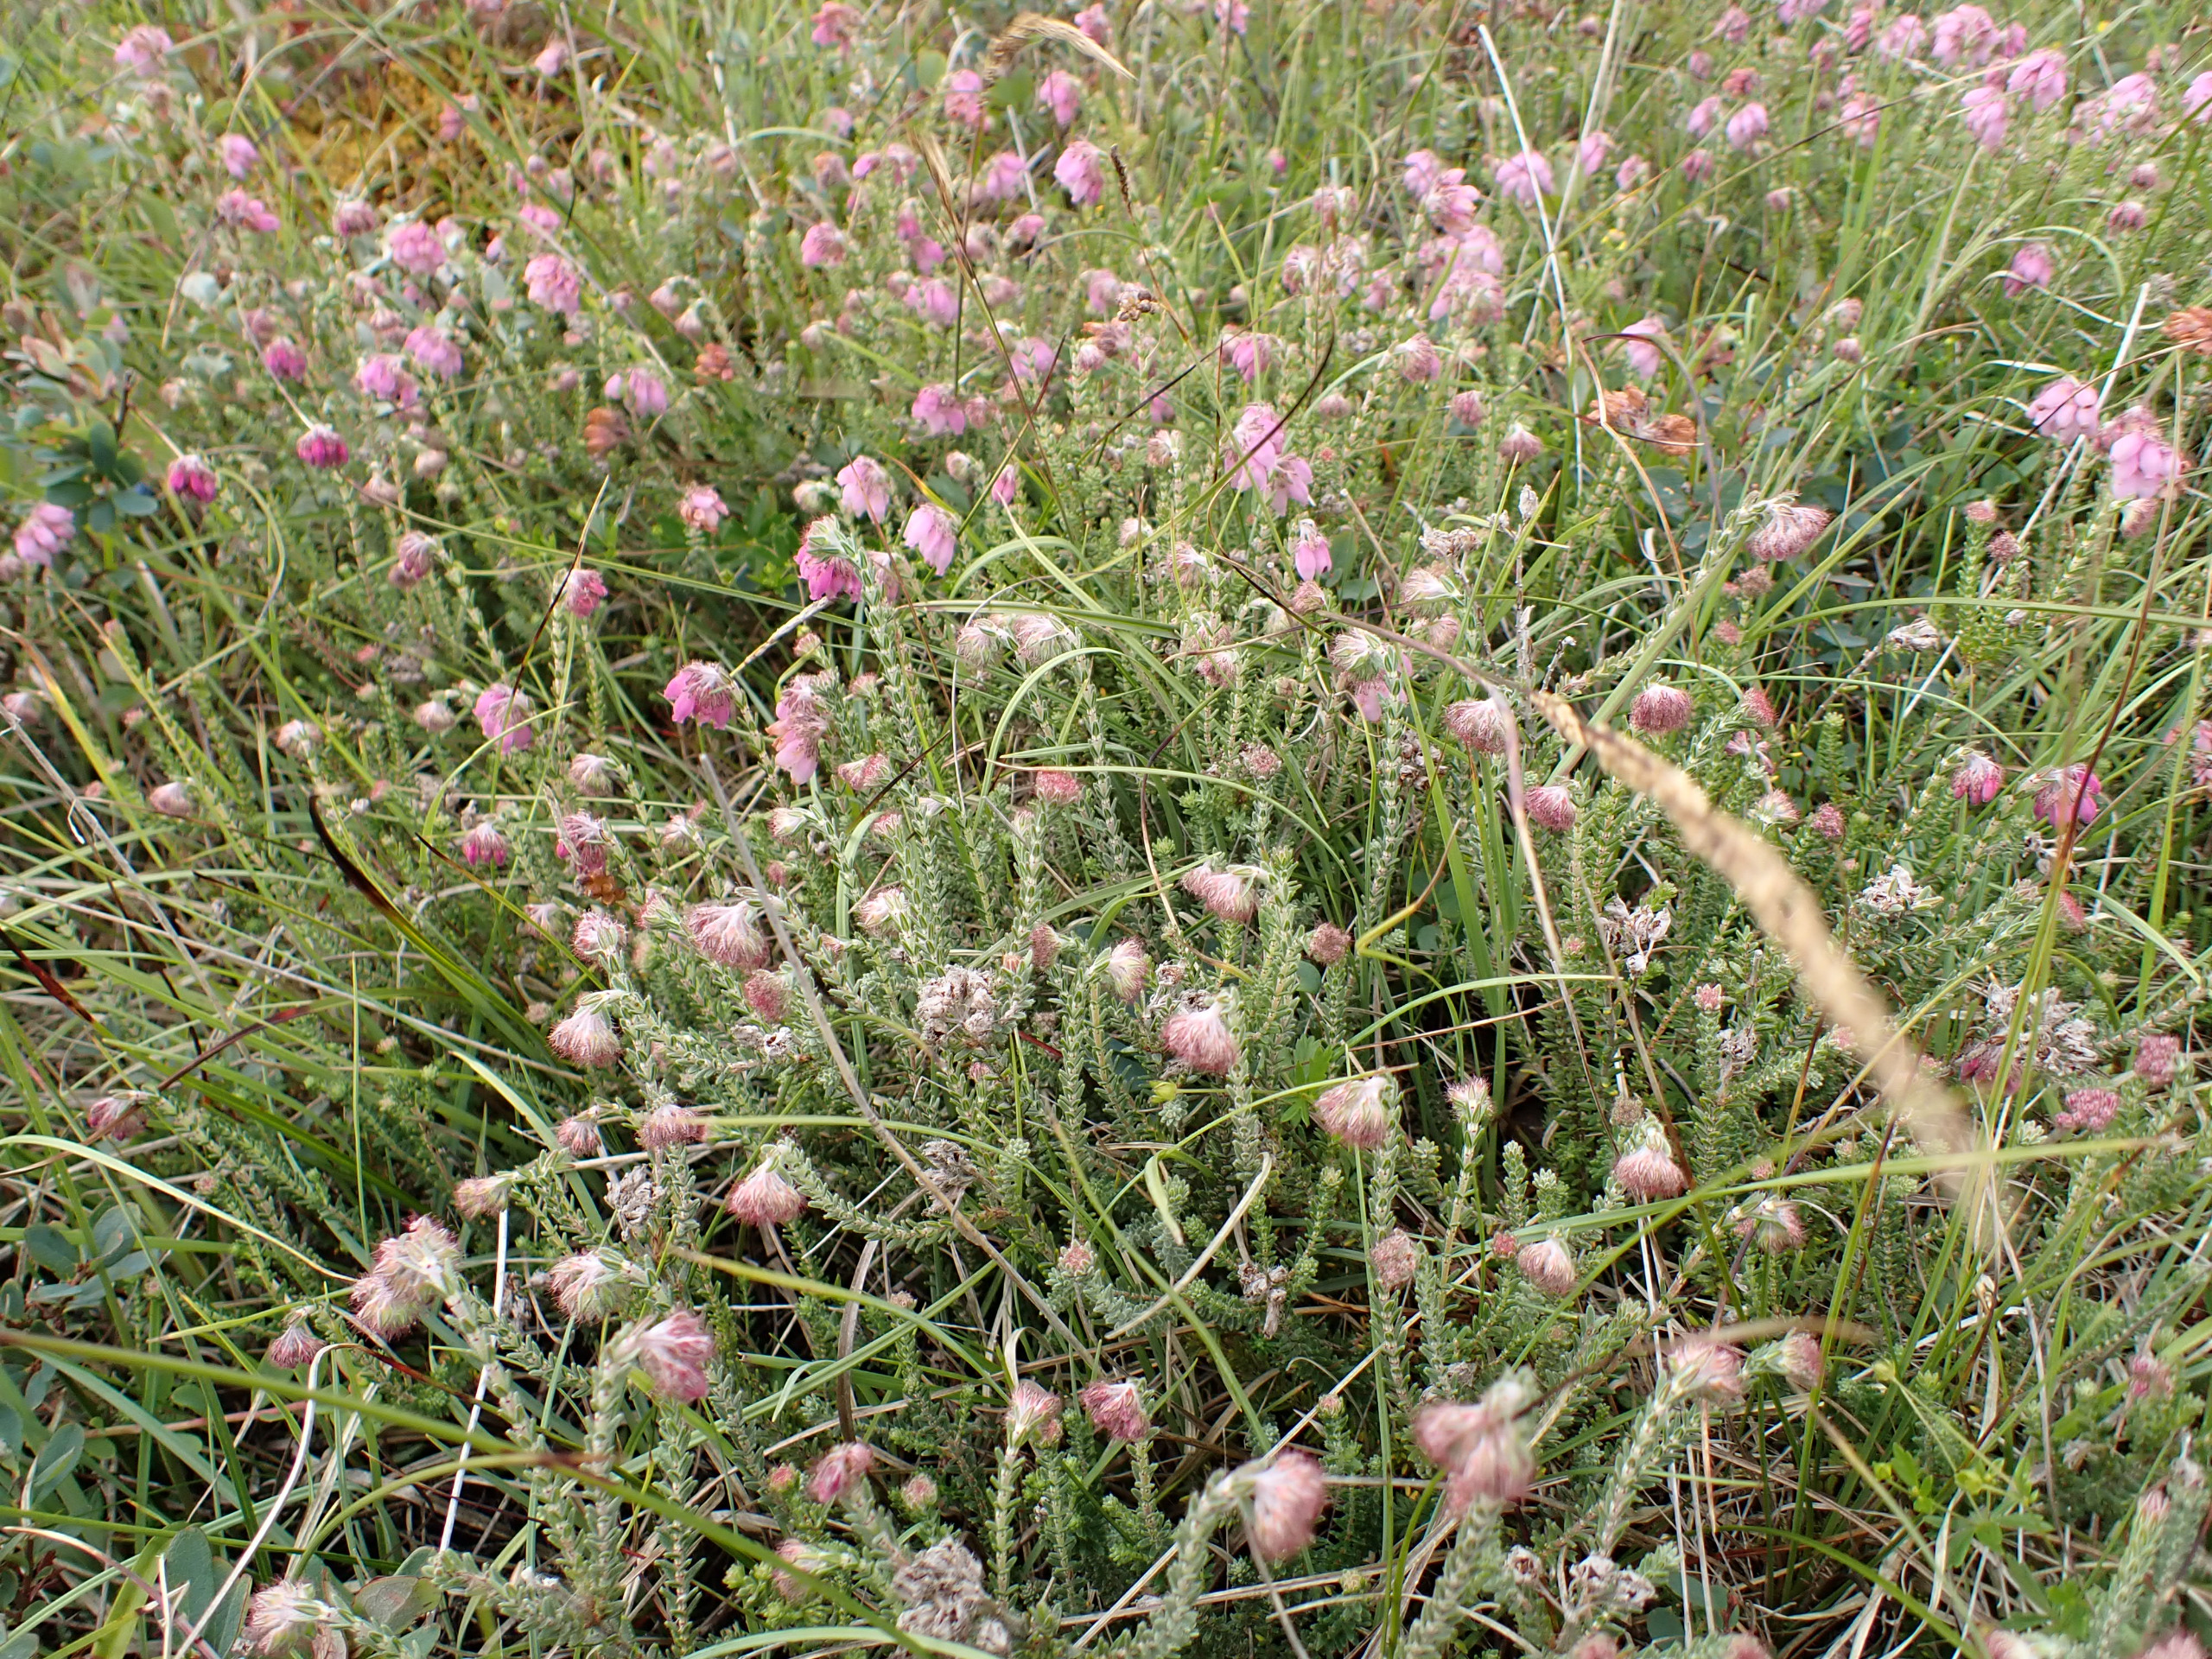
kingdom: Plantae
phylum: Tracheophyta
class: Magnoliopsida
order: Ericales
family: Ericaceae
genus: Erica
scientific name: Erica tetralix
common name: Klokkelyng
